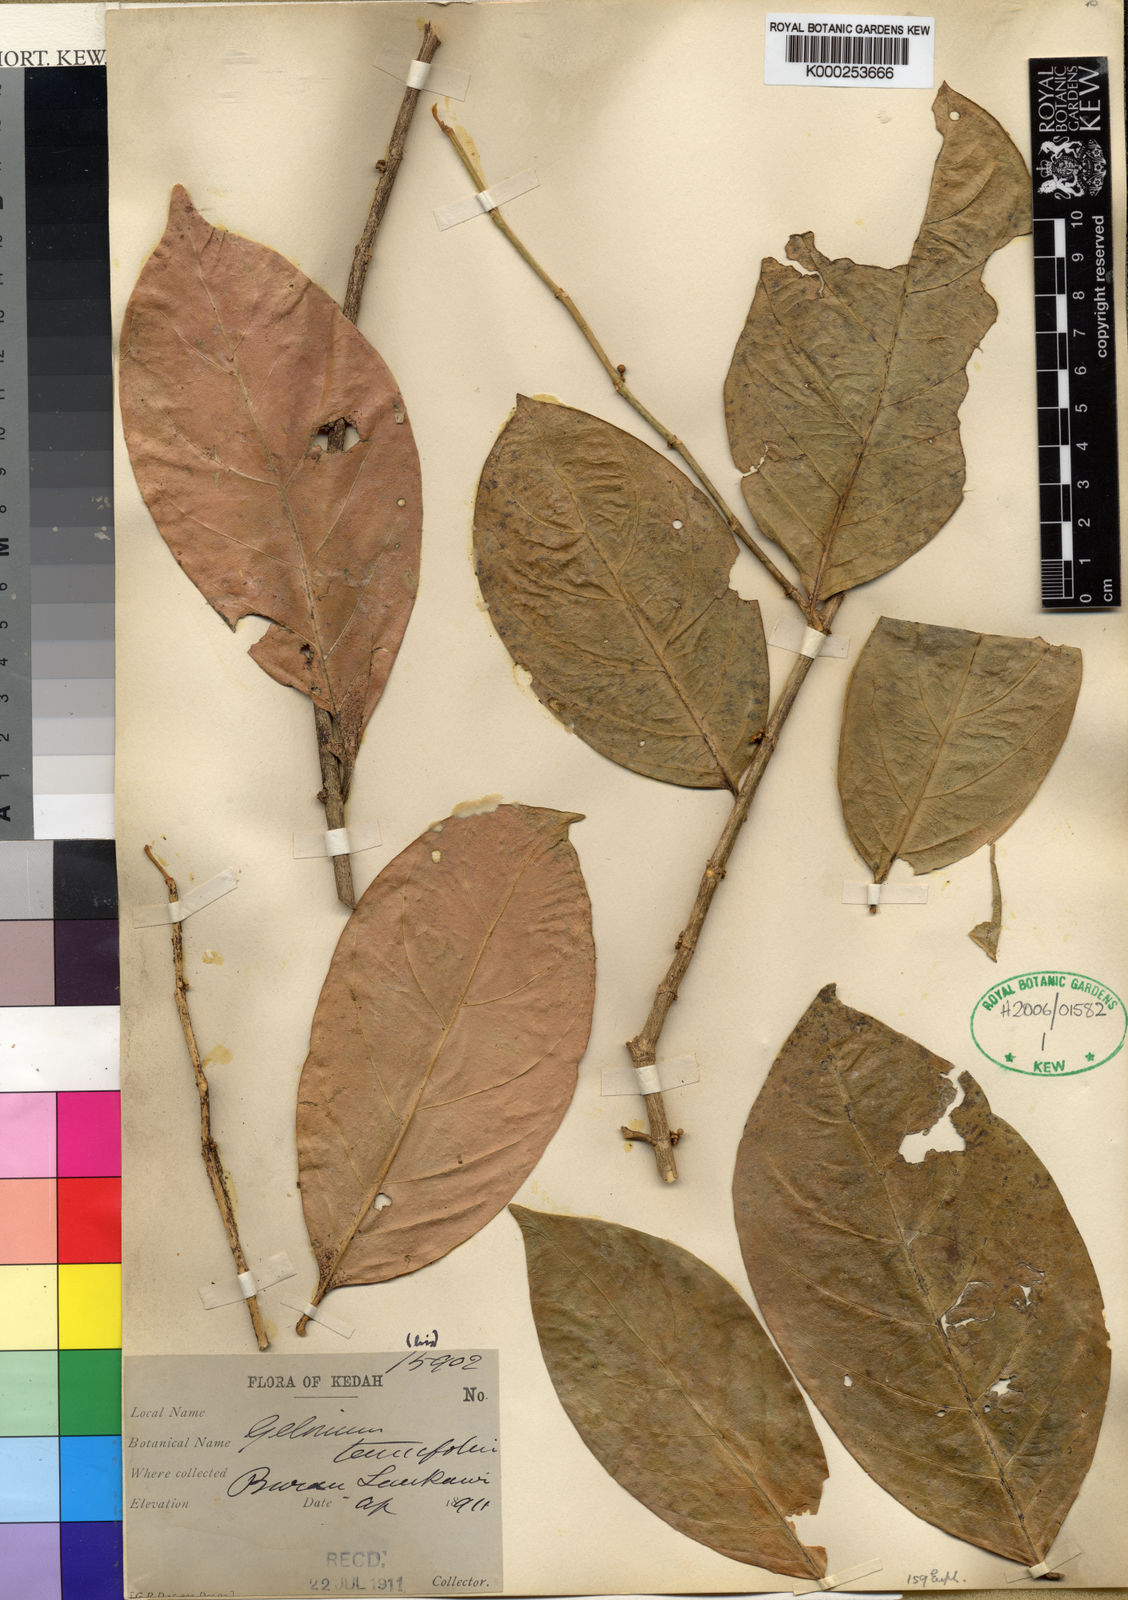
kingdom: Plantae
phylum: Tracheophyta
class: Magnoliopsida
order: Malpighiales
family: Euphorbiaceae
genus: Suregada
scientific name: Suregada multiflora
